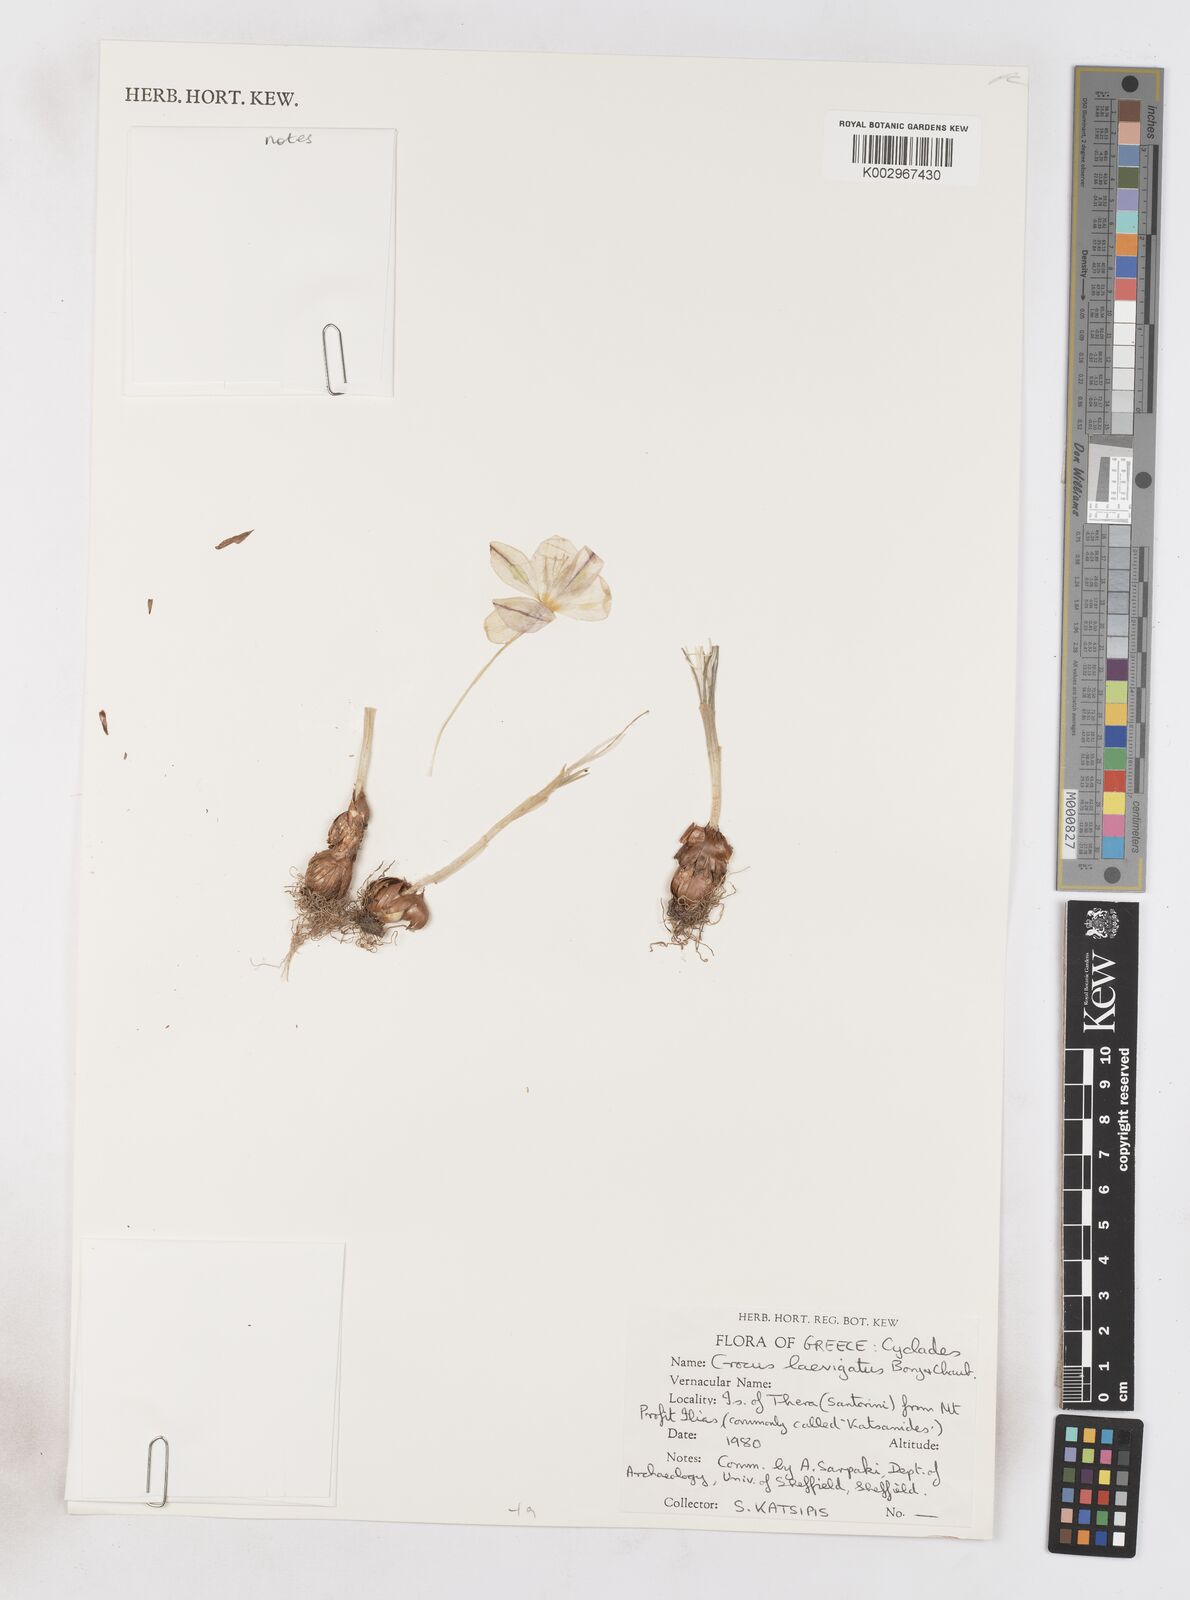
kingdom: Plantae
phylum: Tracheophyta
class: Liliopsida
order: Asparagales
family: Iridaceae
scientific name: Iridaceae
